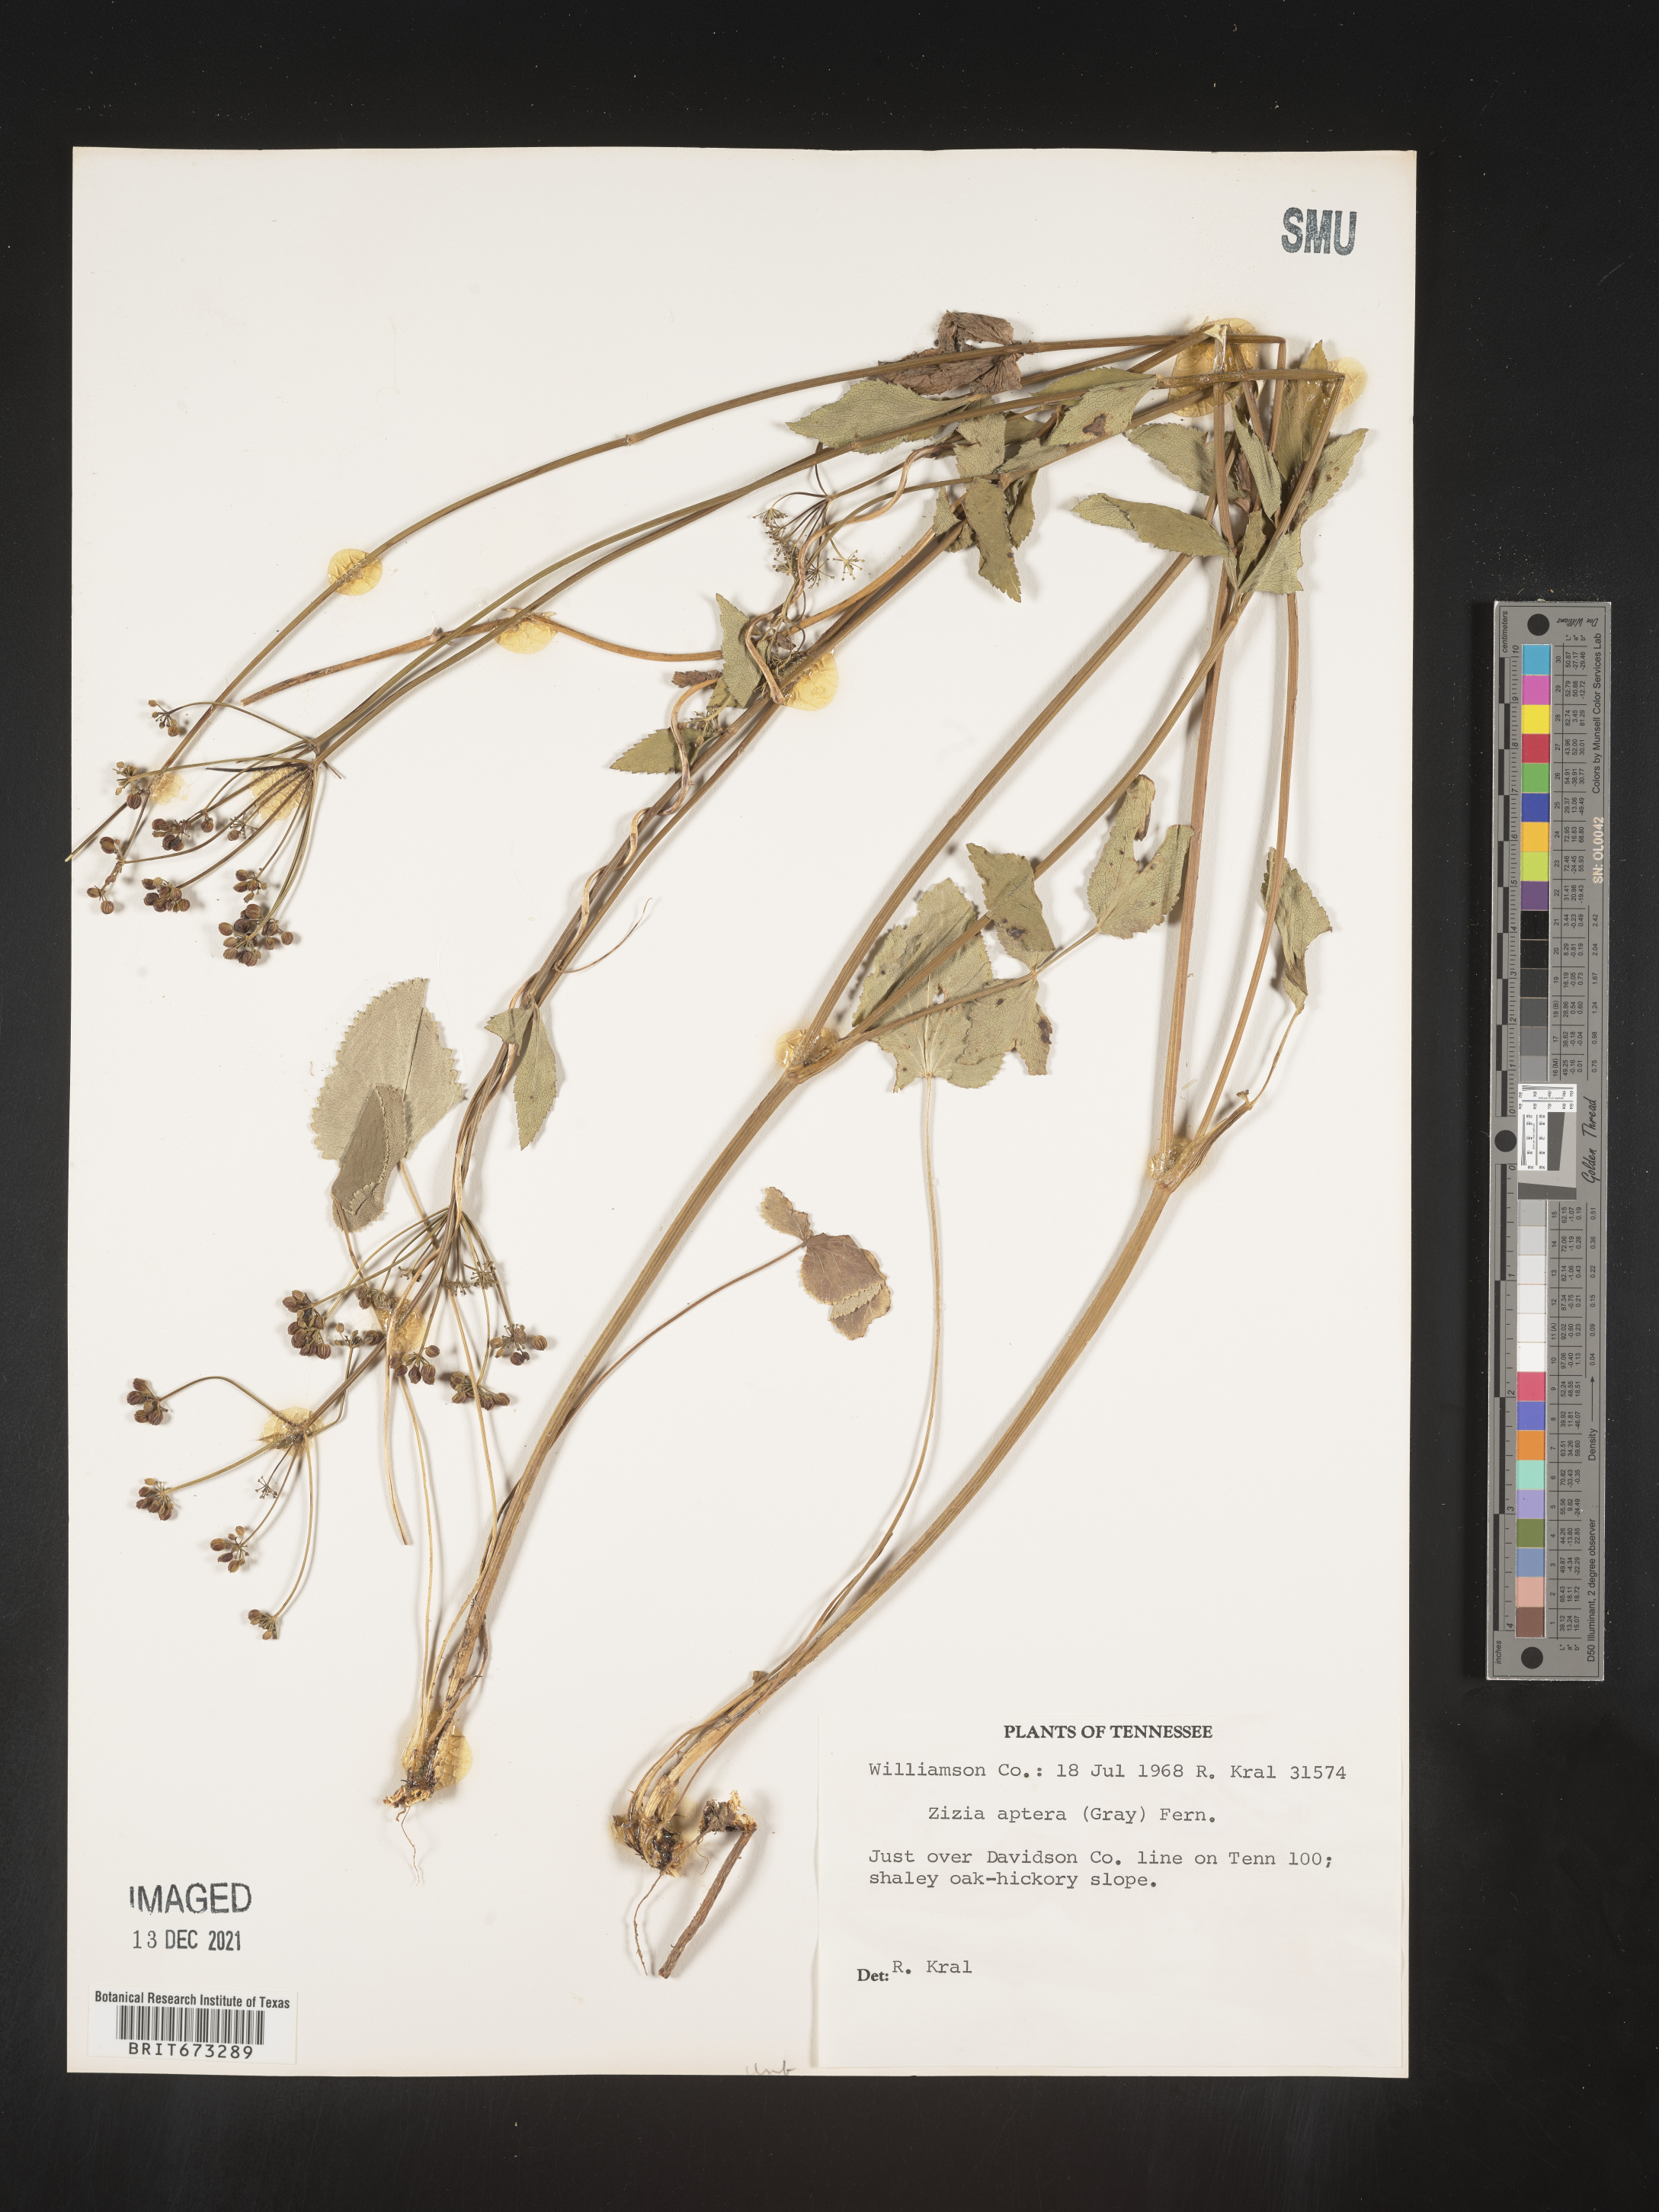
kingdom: Plantae
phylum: Tracheophyta
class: Magnoliopsida
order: Apiales
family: Apiaceae
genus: Zizia
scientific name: Zizia aptera
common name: Heart-leaved alexanders
